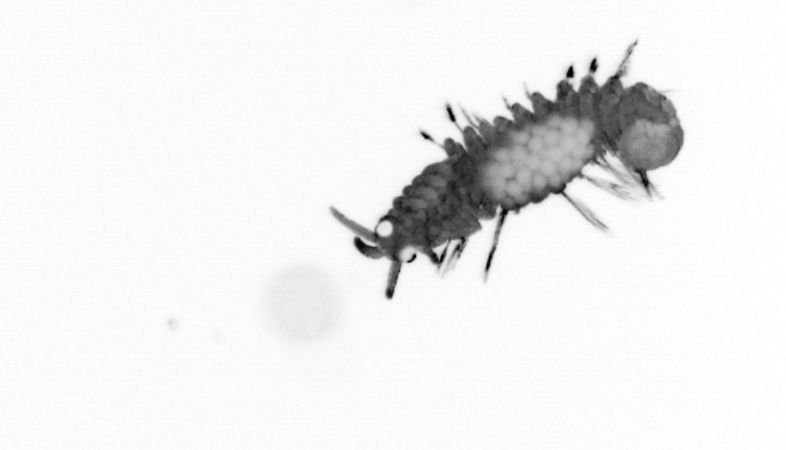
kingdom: Animalia
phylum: Annelida
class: Polychaeta
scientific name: Polychaeta
